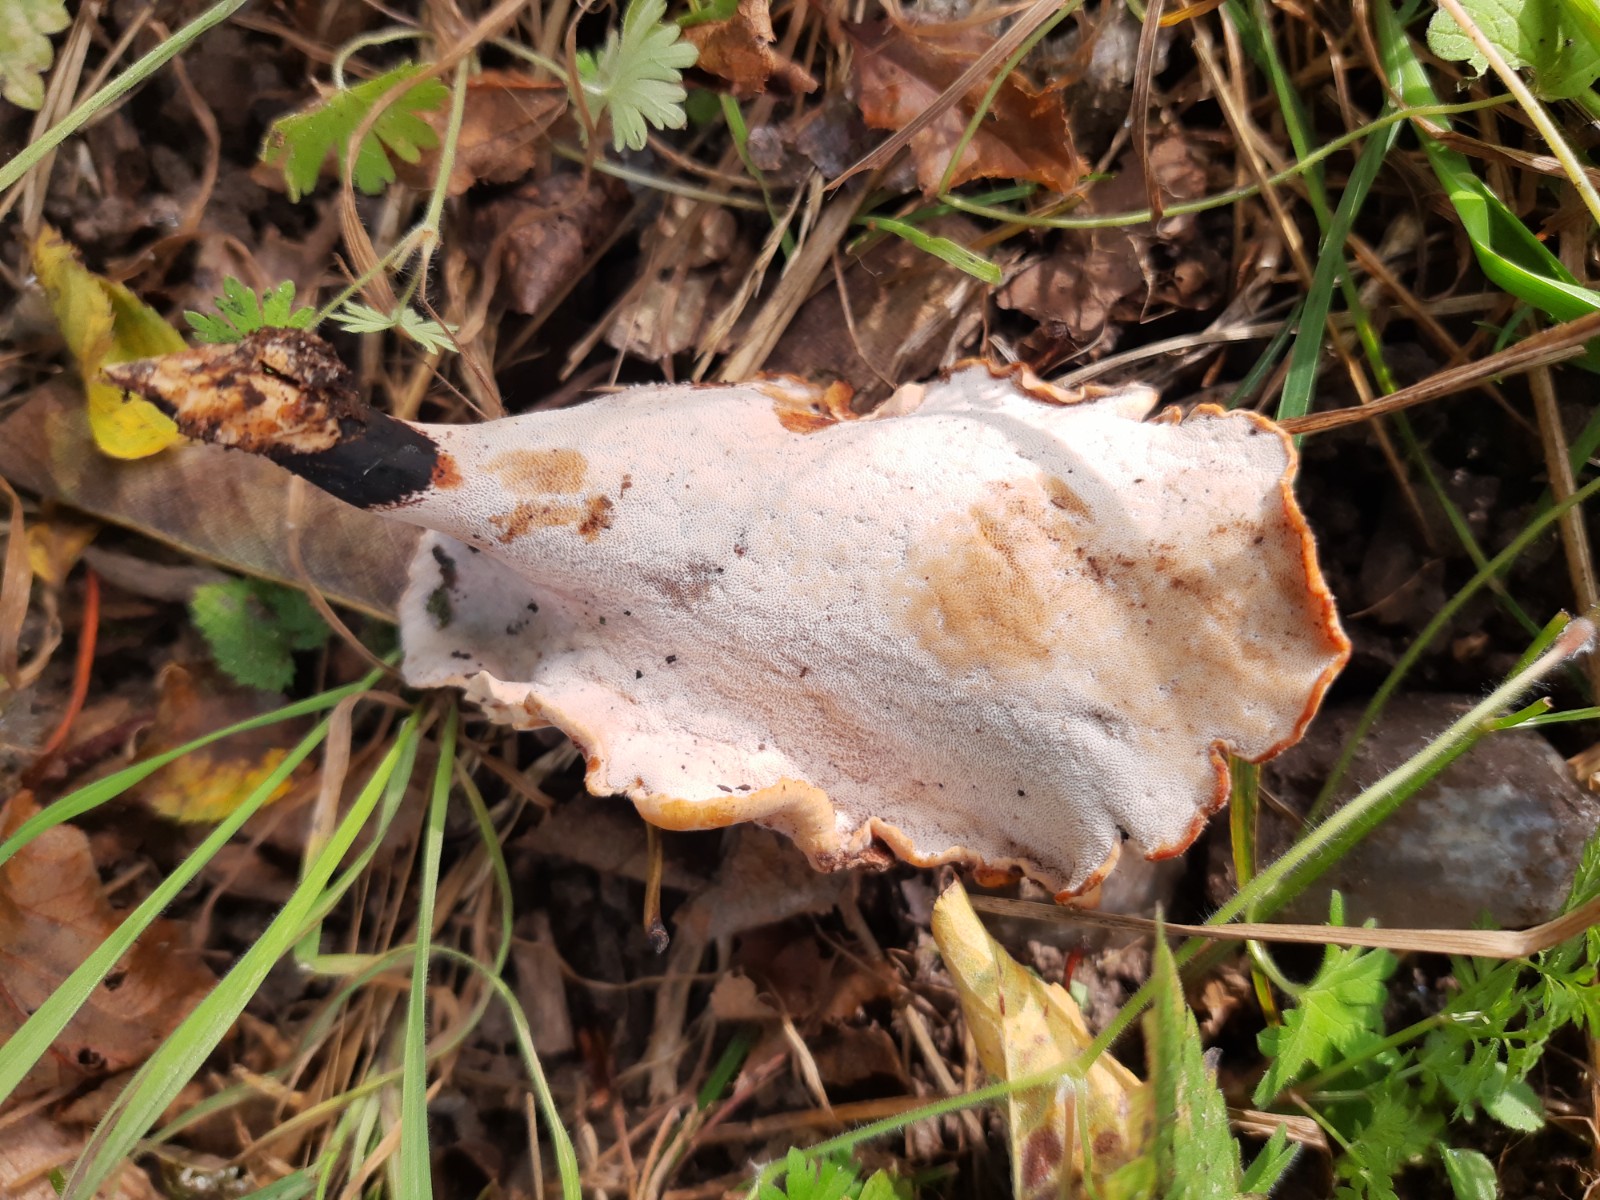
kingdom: Fungi
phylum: Basidiomycota
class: Agaricomycetes
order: Polyporales
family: Polyporaceae
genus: Cerioporus
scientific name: Cerioporus varius
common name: foranderlig stilkporesvamp
